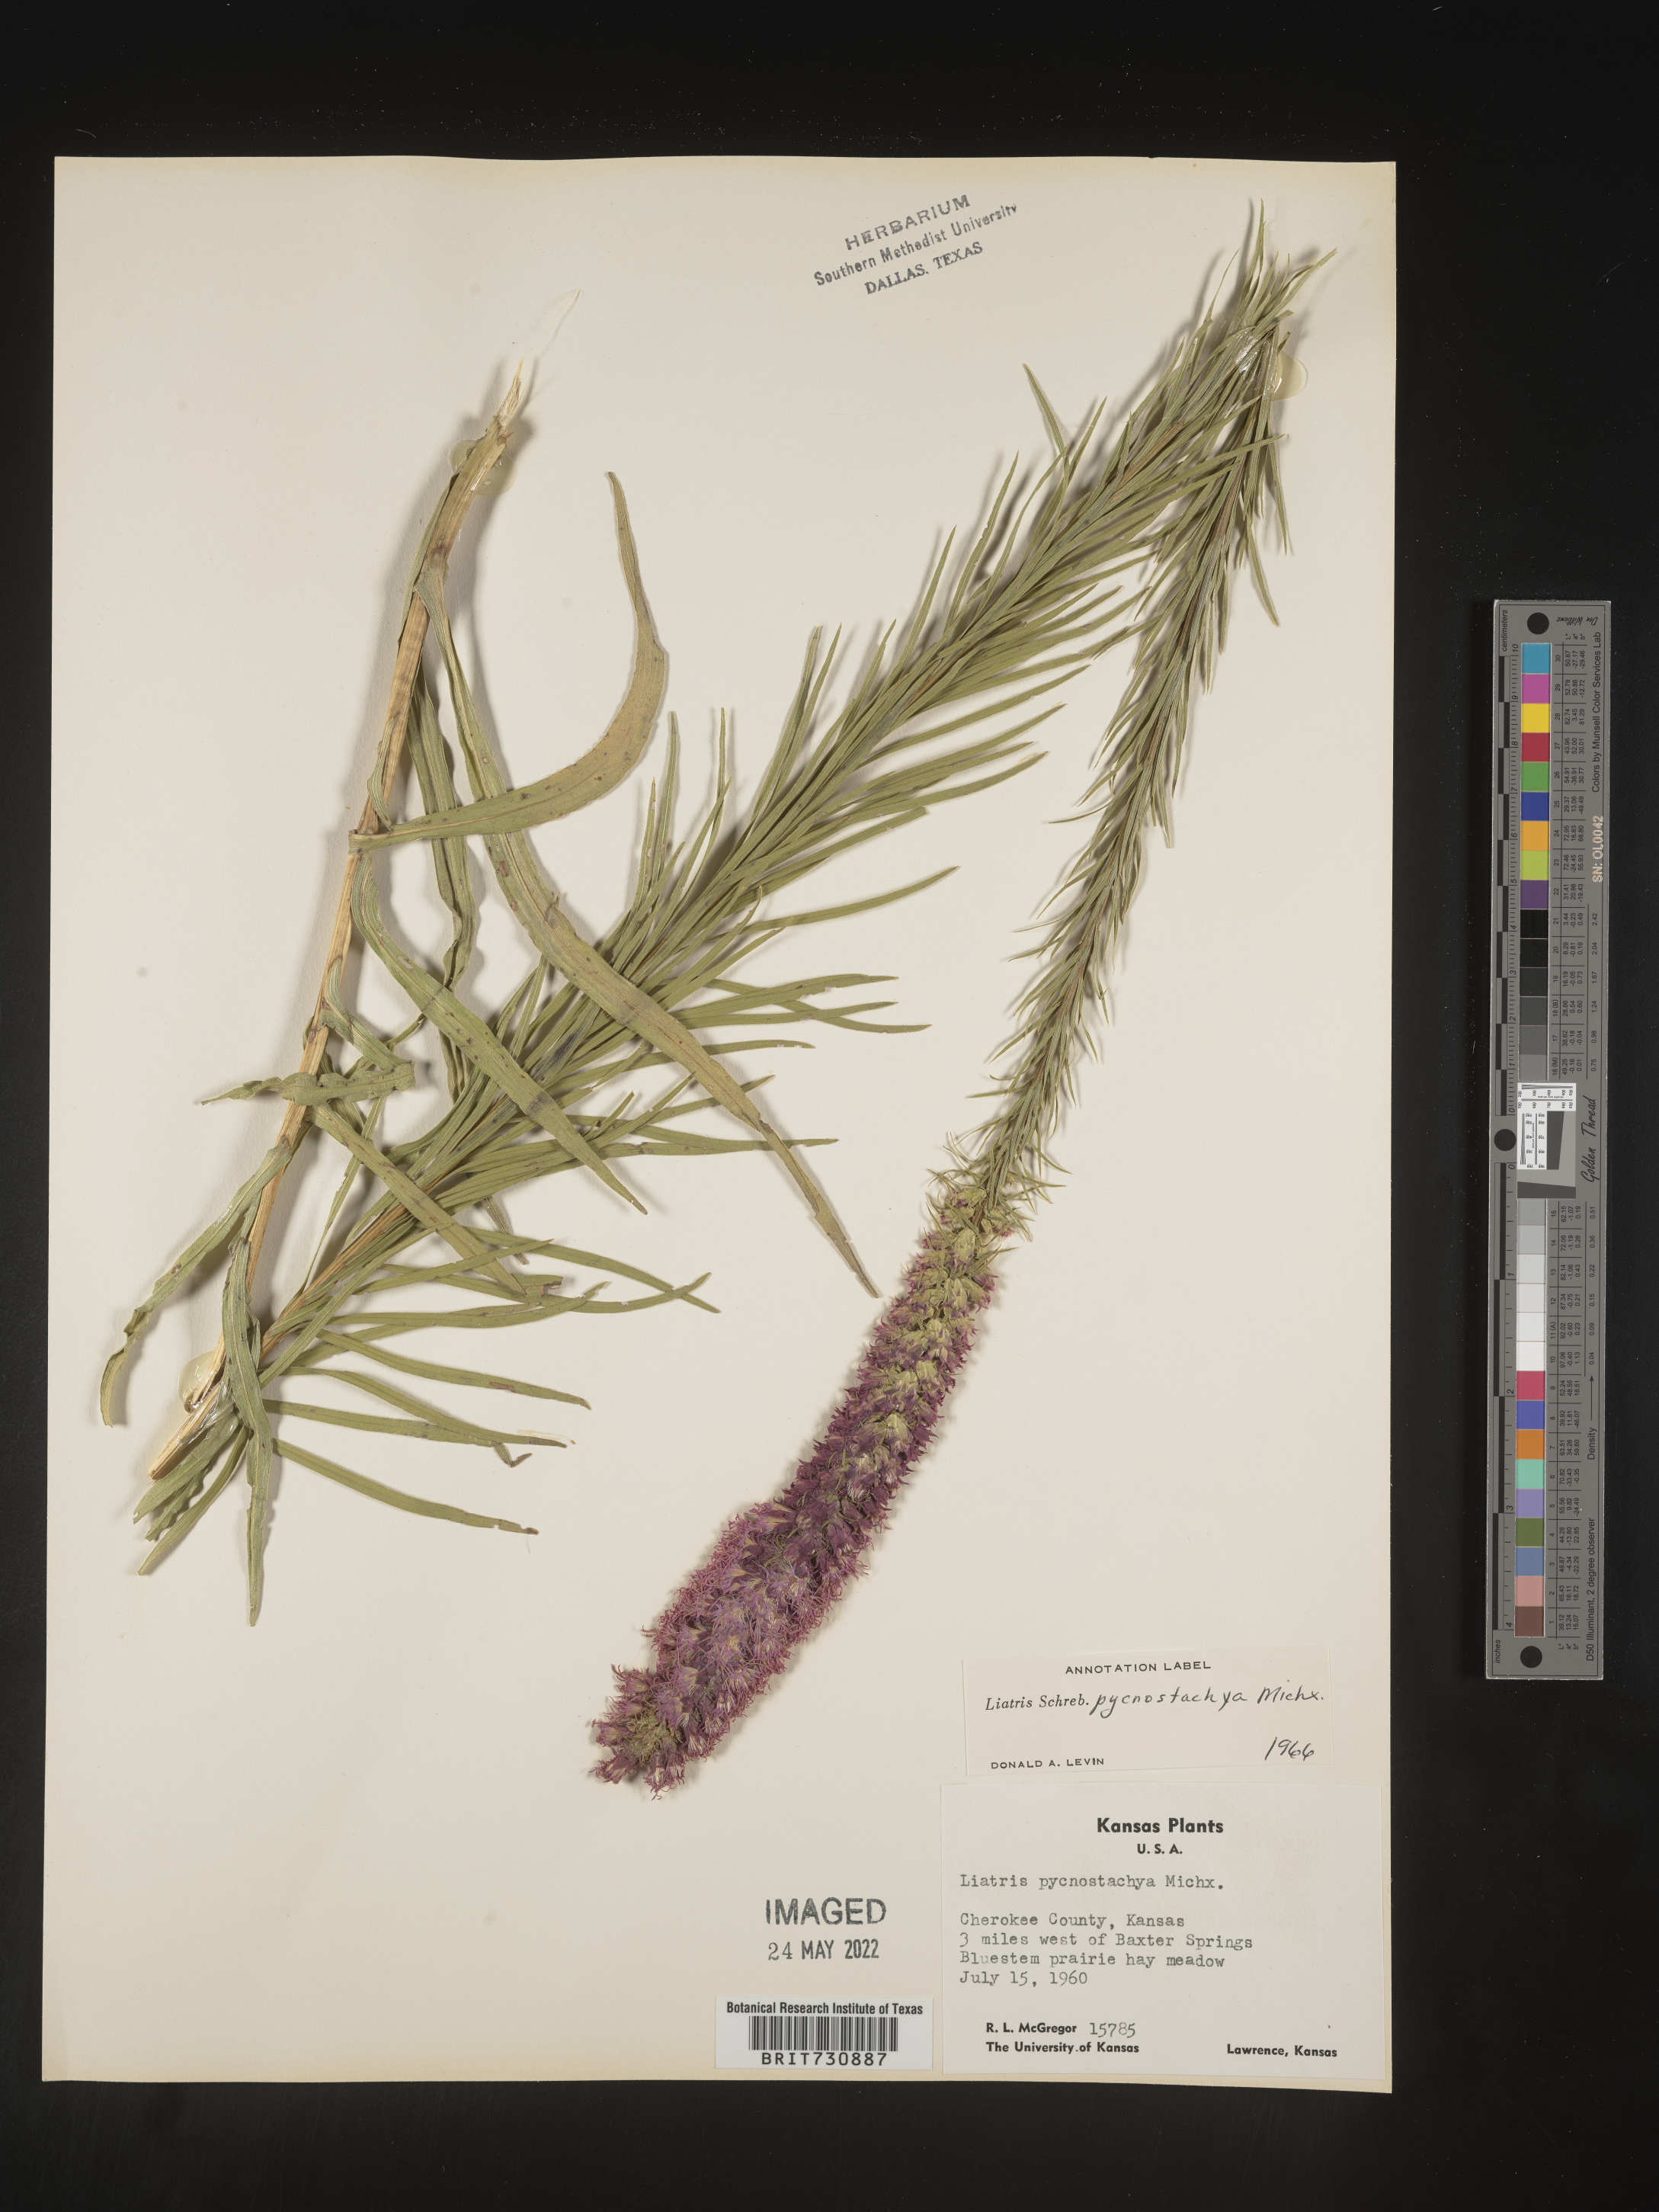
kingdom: Plantae
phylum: Tracheophyta
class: Magnoliopsida
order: Asterales
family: Asteraceae
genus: Liatris
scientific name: Liatris pycnostachya
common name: Cattail gayfeather
